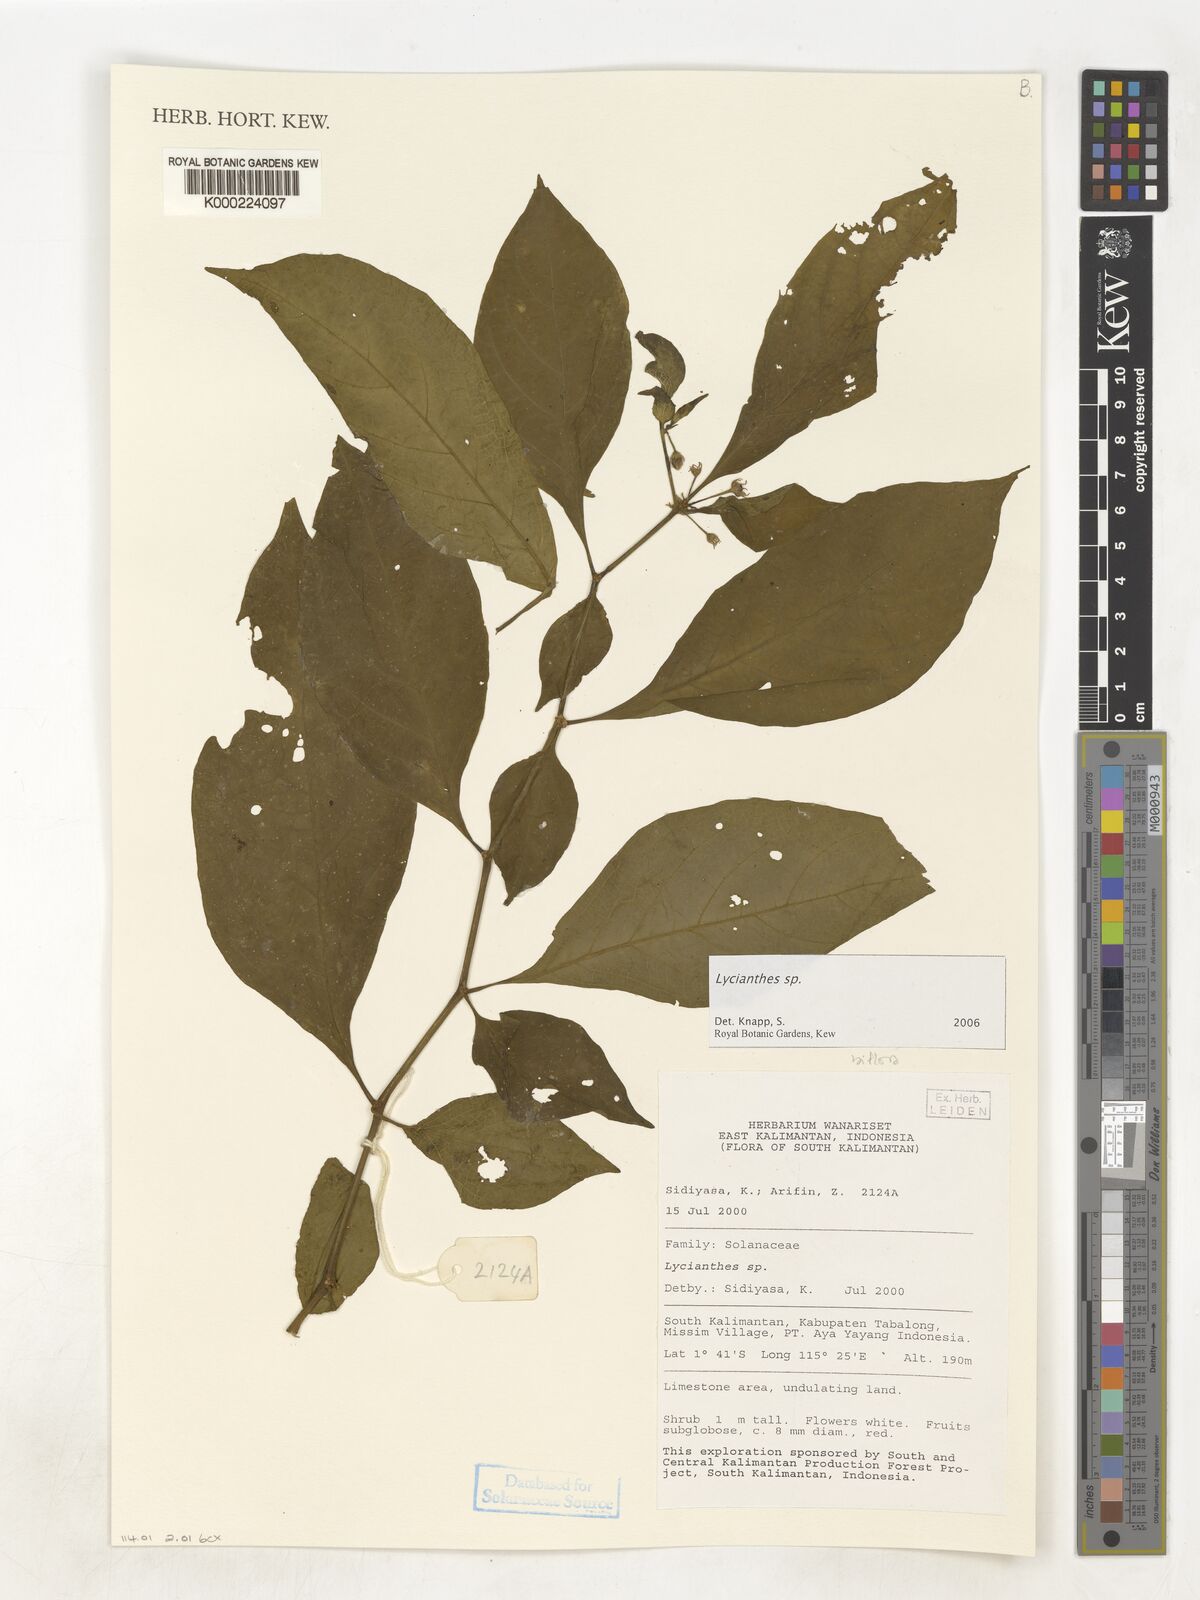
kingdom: Plantae
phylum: Tracheophyta
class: Magnoliopsida
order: Solanales
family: Solanaceae
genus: Lycianthes
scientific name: Lycianthes
